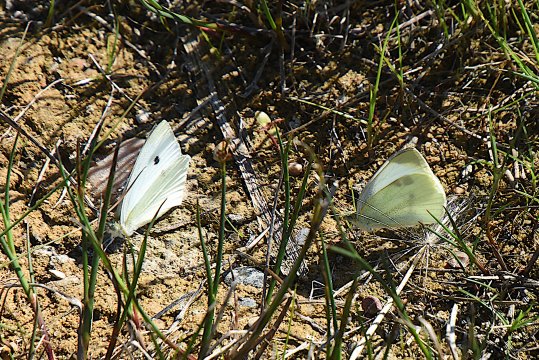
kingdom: Animalia
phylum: Arthropoda
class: Insecta
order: Lepidoptera
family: Pieridae
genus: Pieris
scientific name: Pieris rapae
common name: Cabbage White
